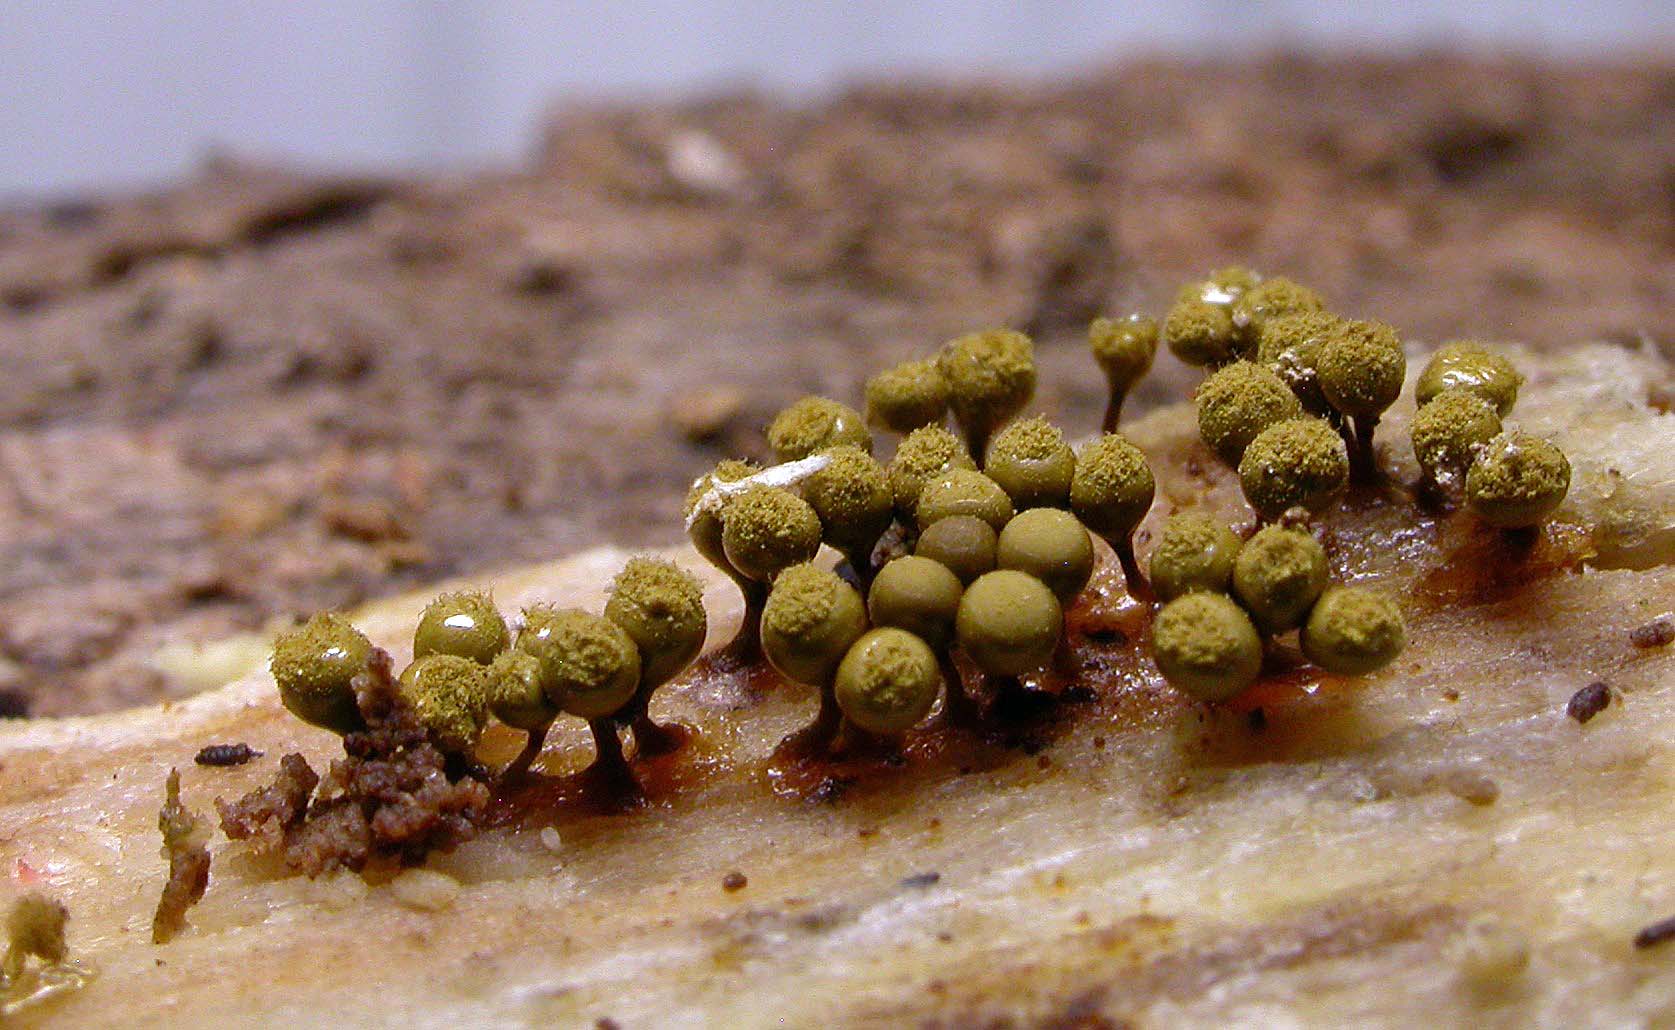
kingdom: Protozoa
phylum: Mycetozoa
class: Myxomycetes
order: Trichiales
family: Arcyriaceae
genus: Hemitrichia
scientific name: Hemitrichia decipiens
